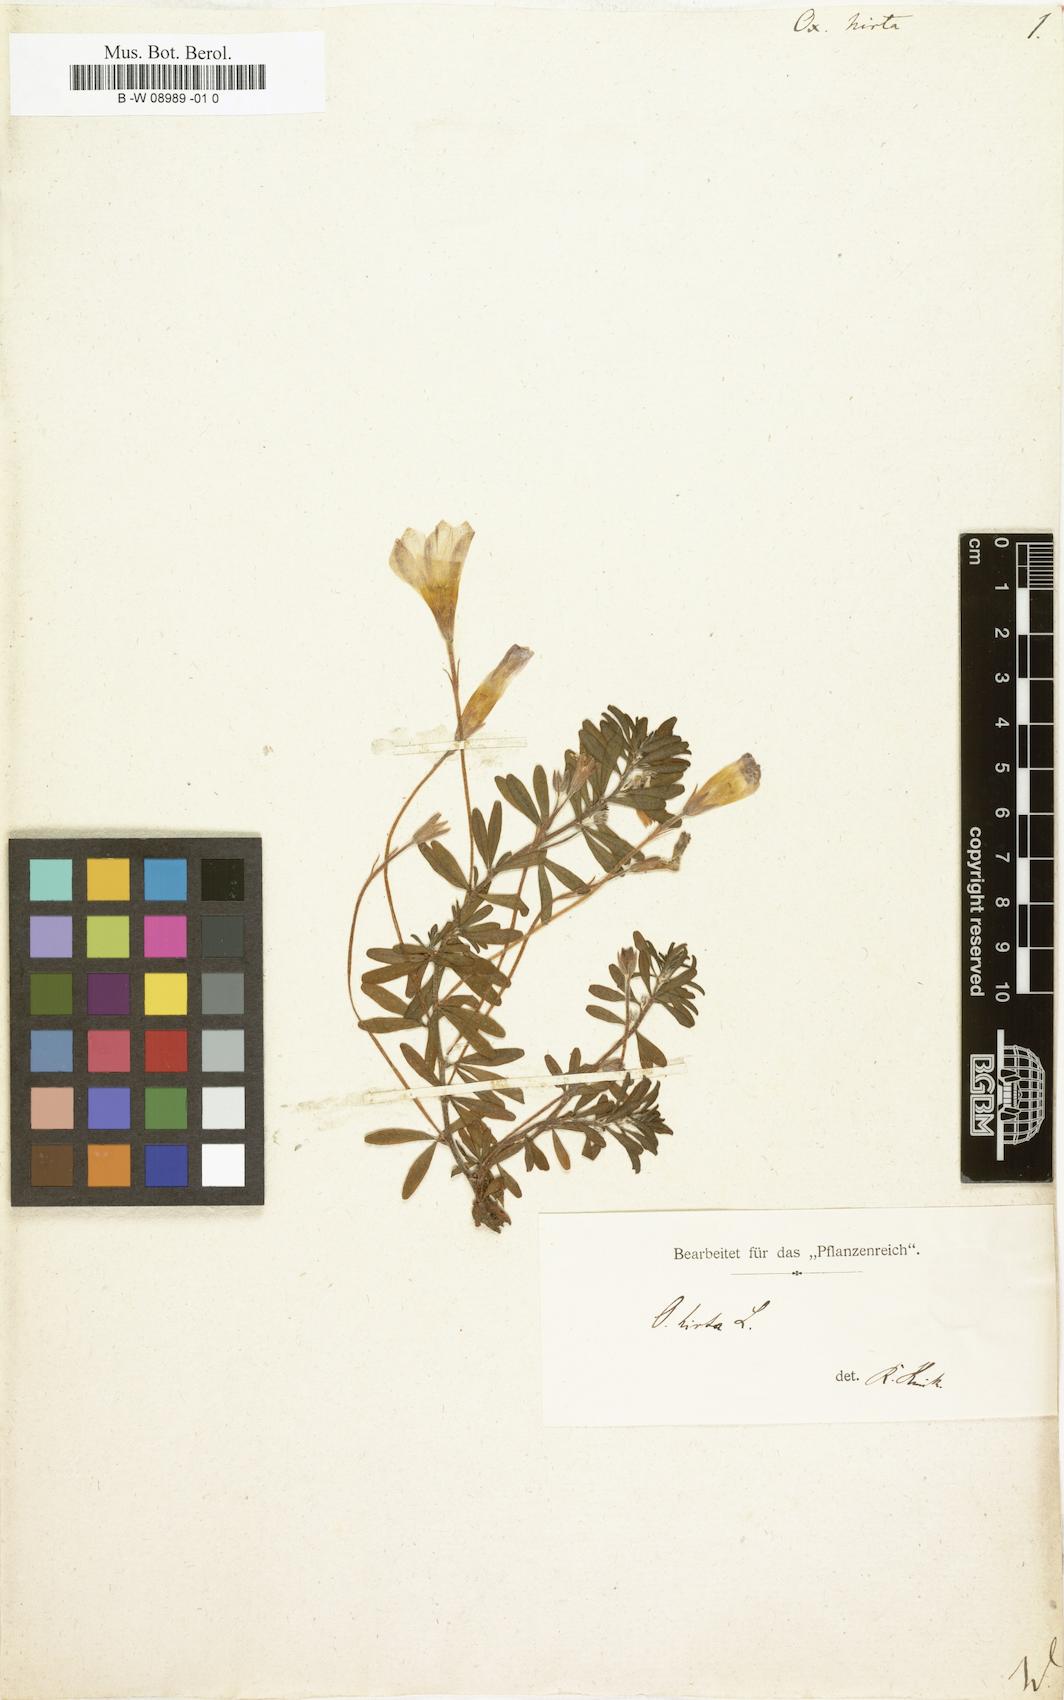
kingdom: Plantae
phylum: Tracheophyta
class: Magnoliopsida
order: Oxalidales
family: Oxalidaceae
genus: Oxalis
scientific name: Oxalis hirta
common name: Tropical woodsorrel
